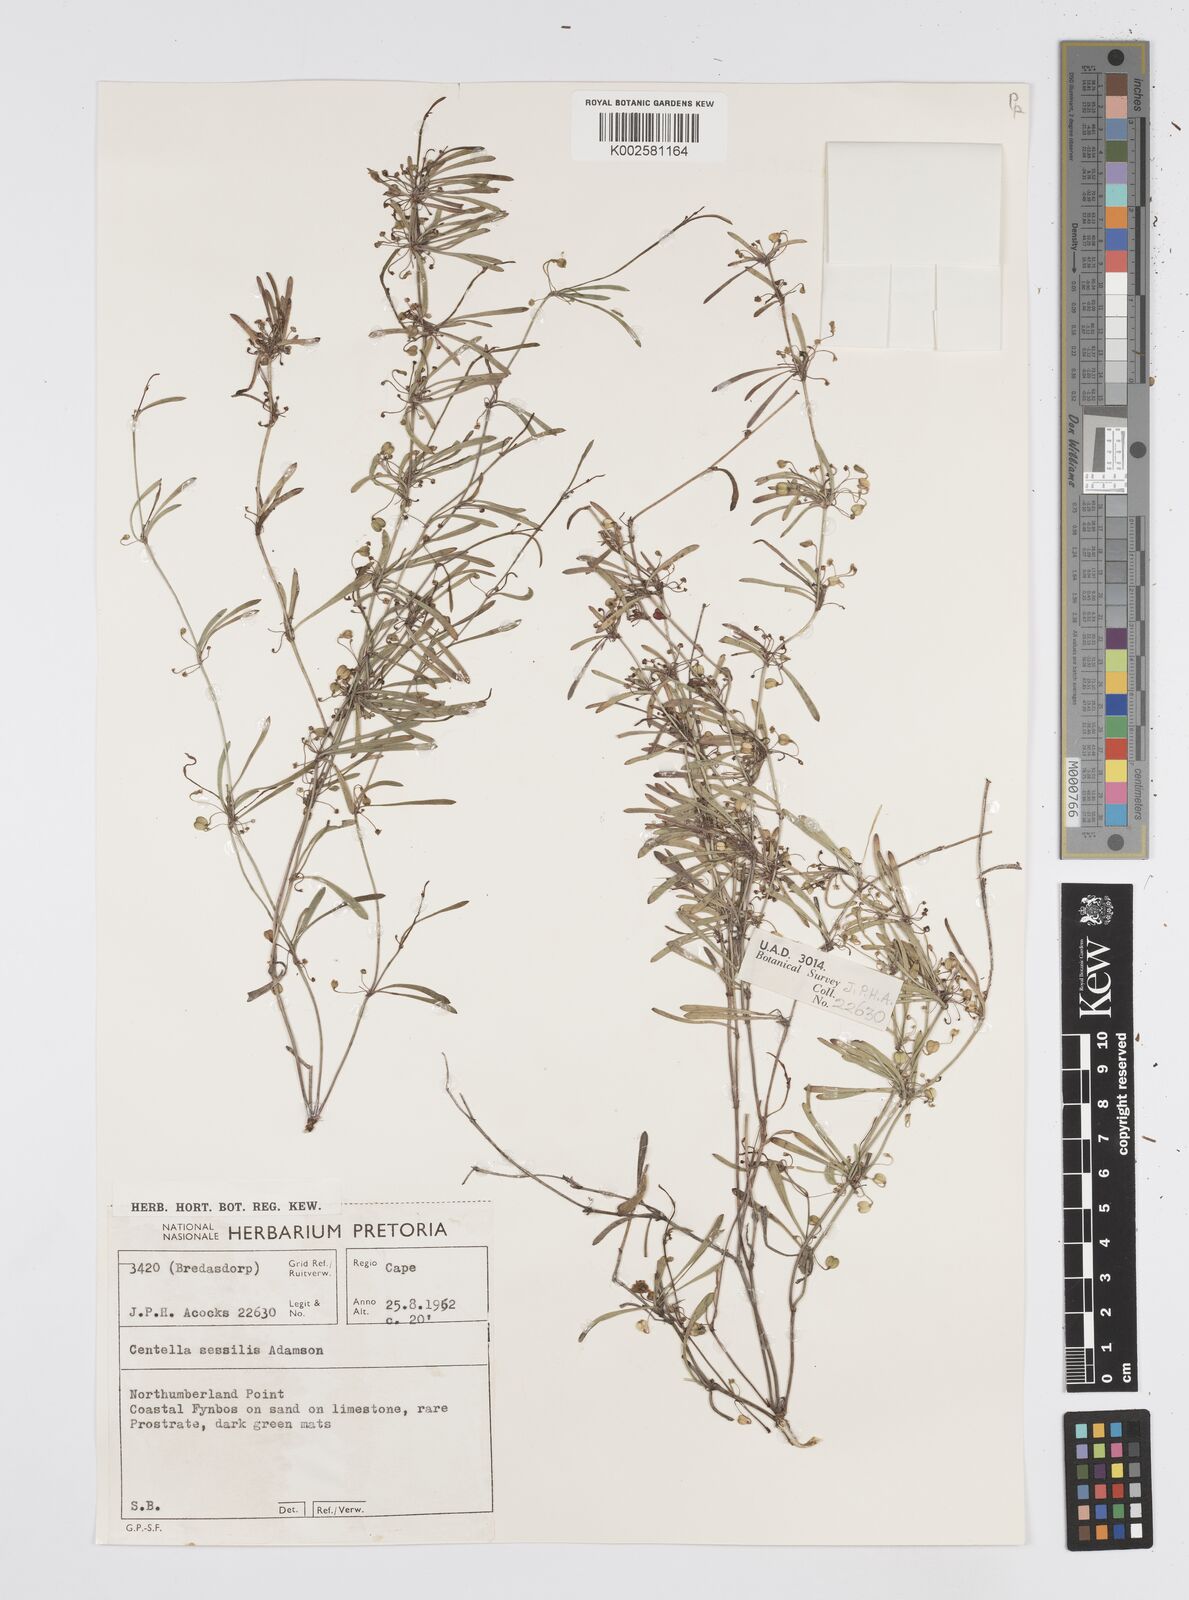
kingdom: Plantae
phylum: Tracheophyta
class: Magnoliopsida
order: Apiales
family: Apiaceae
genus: Centella
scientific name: Centella sessilis
